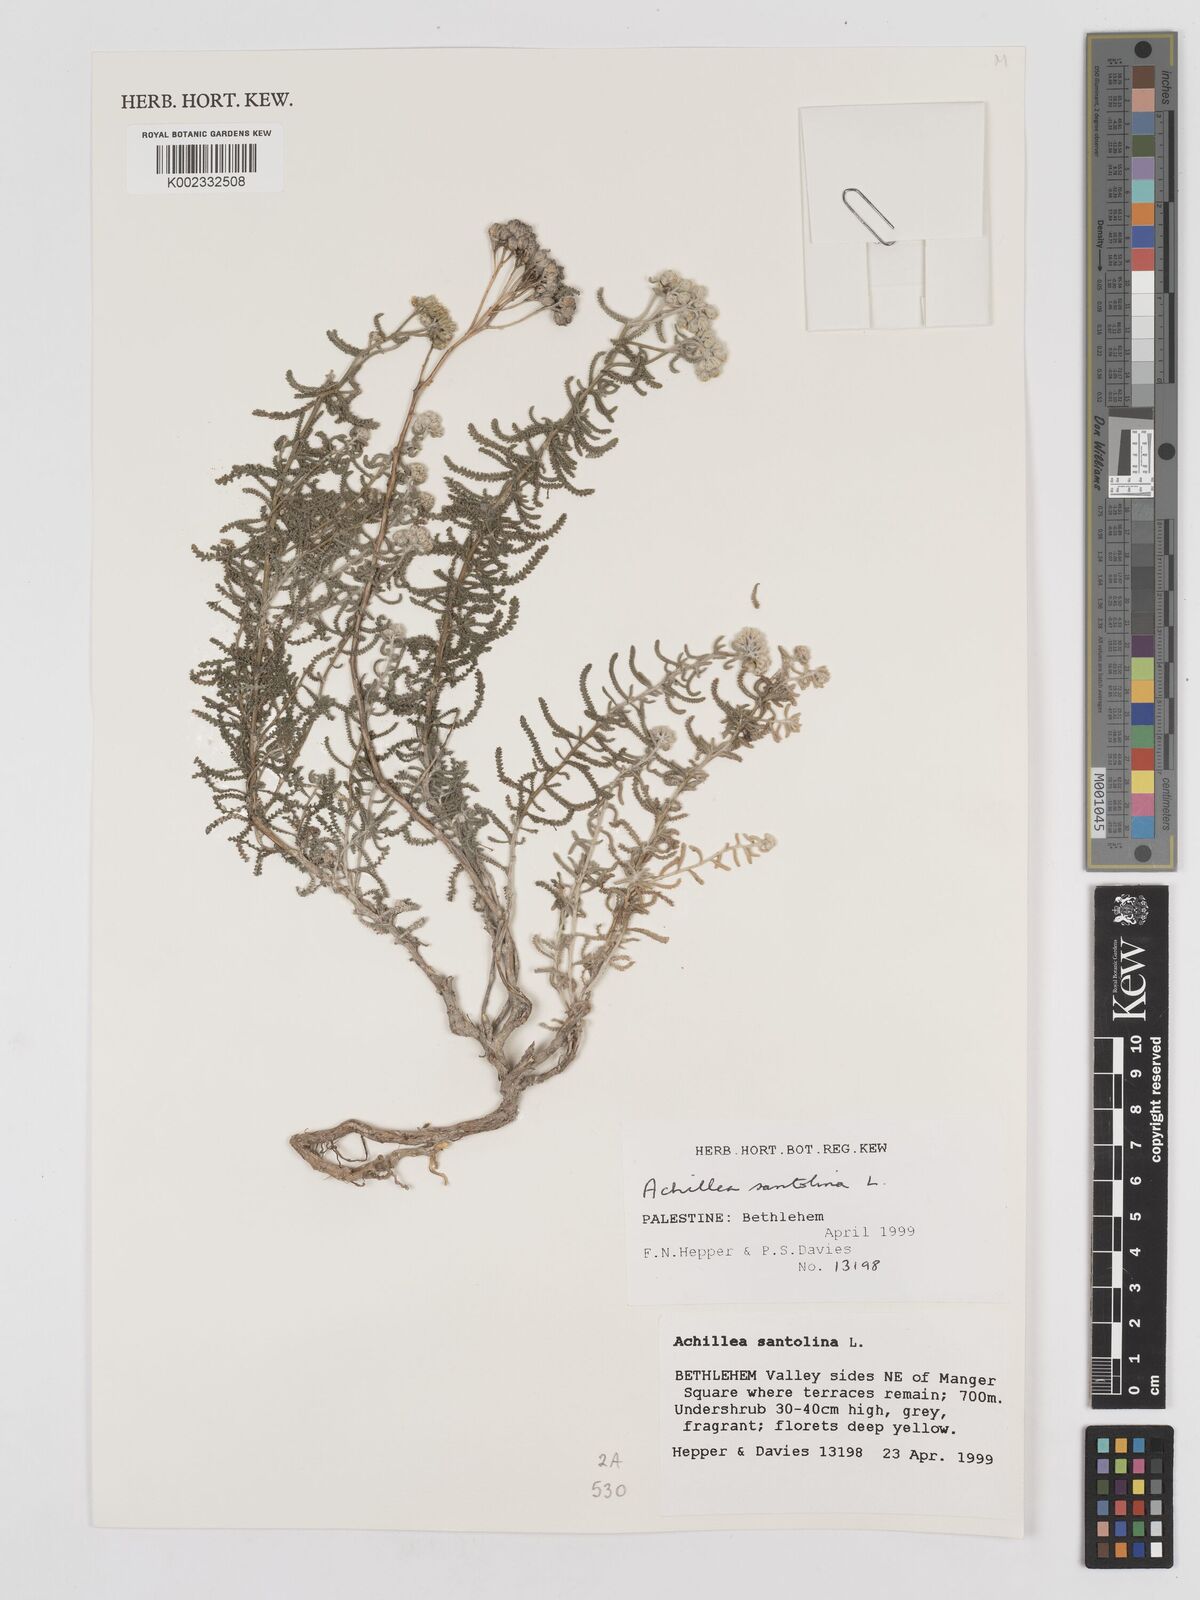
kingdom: Plantae
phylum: Tracheophyta
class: Magnoliopsida
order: Asterales
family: Asteraceae
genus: Achillea
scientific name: Achillea tenuifolia
